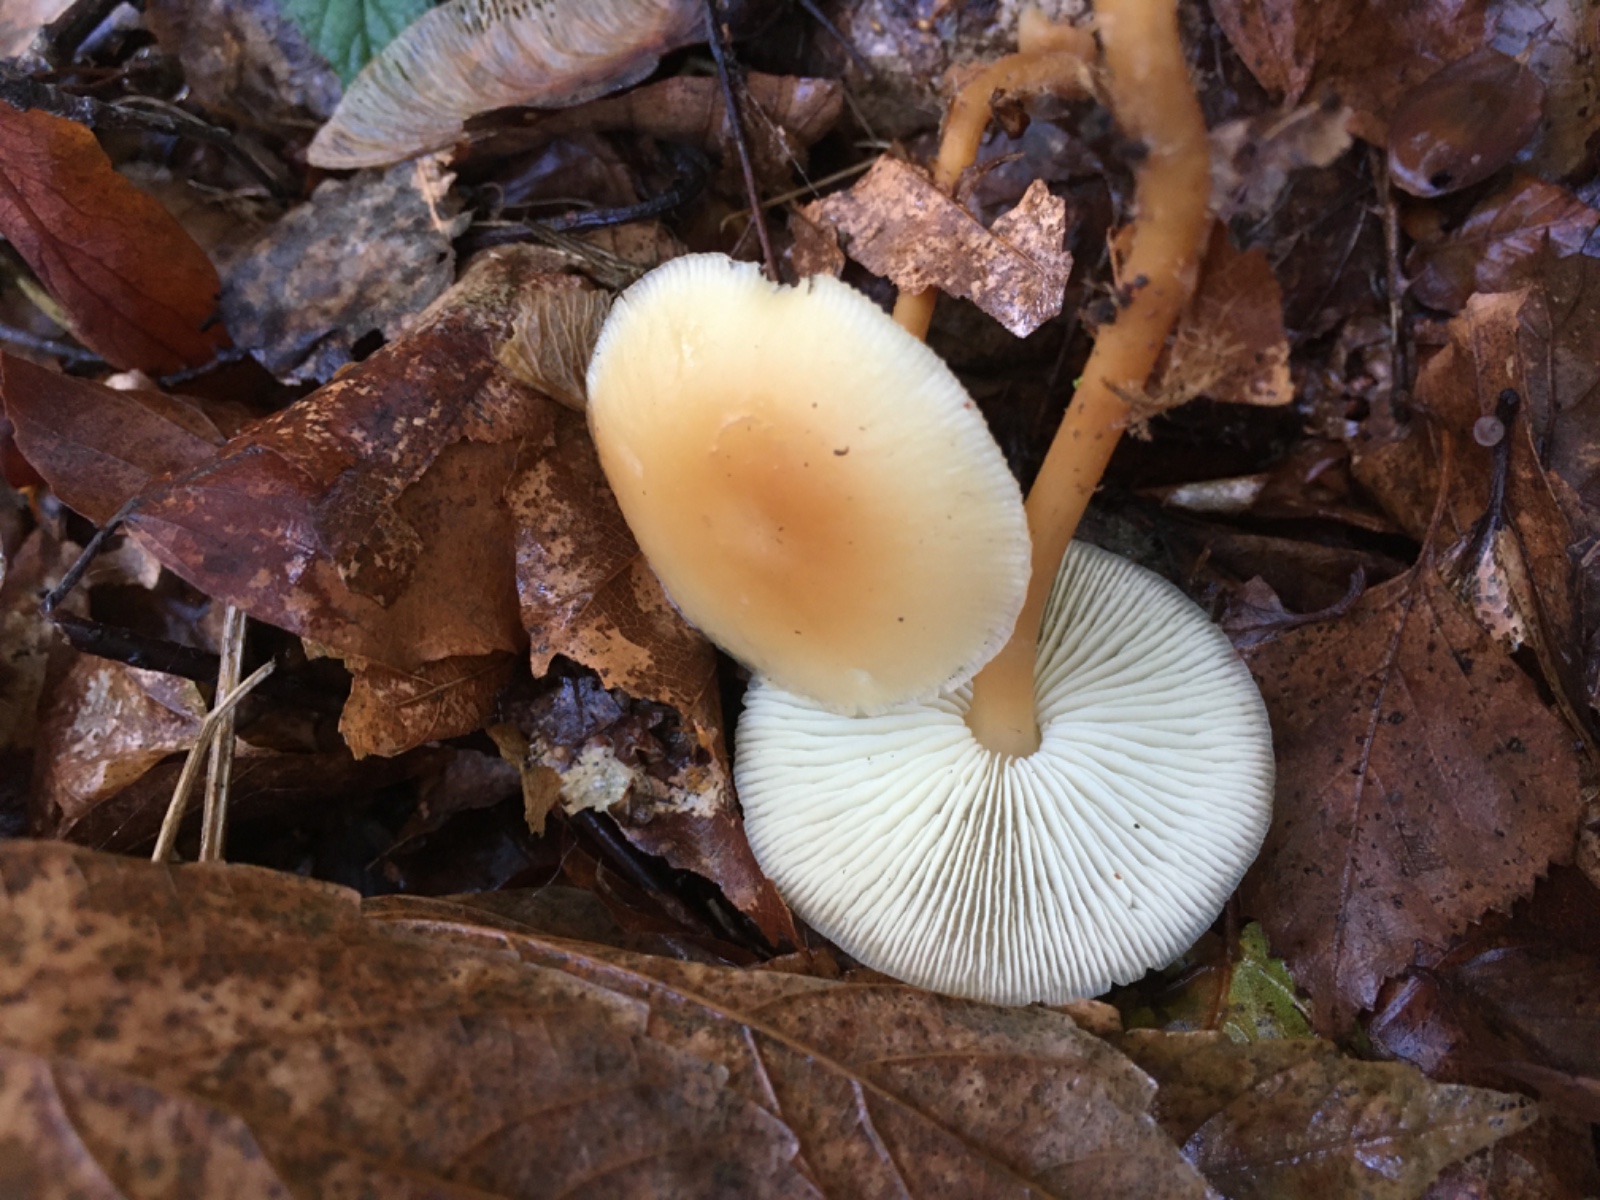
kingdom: Fungi
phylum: Basidiomycota
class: Agaricomycetes
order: Agaricales
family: Omphalotaceae
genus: Gymnopus
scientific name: Gymnopus dryophilus
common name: løv-fladhat
